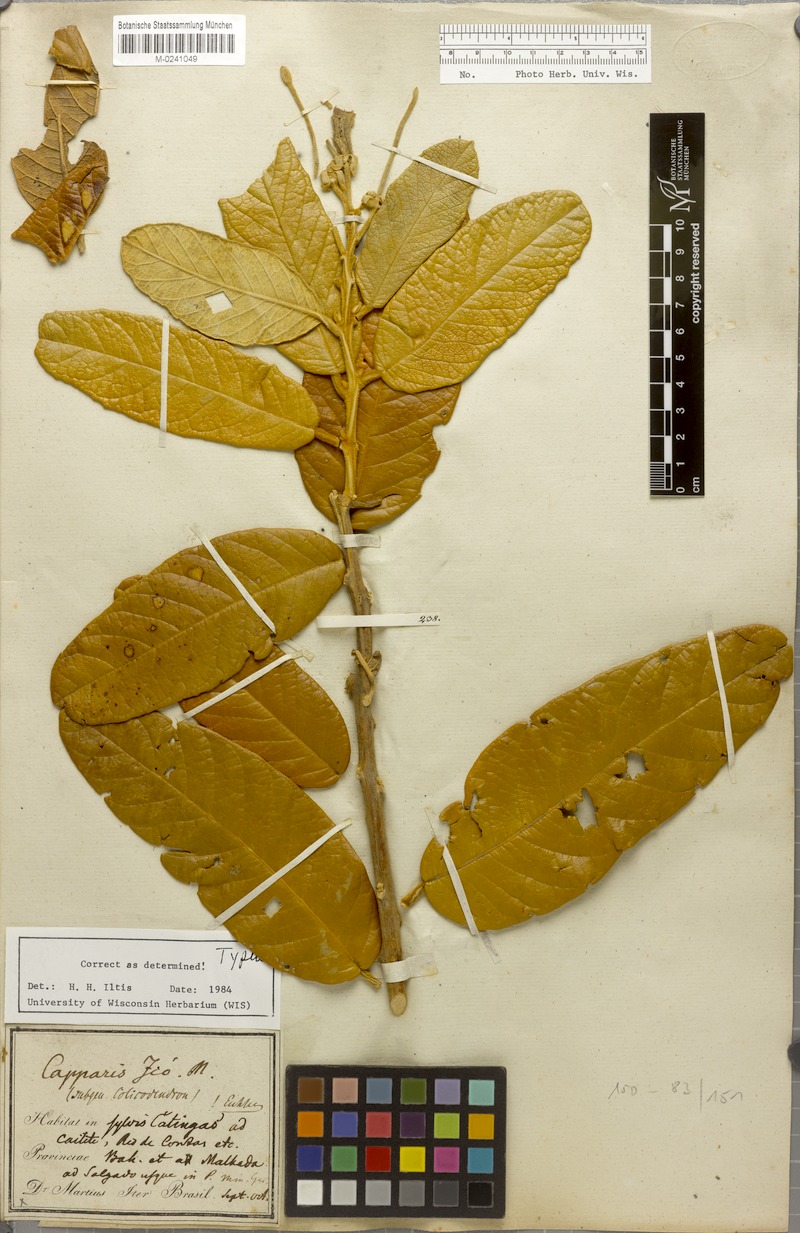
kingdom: Plantae
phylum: Tracheophyta
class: Magnoliopsida
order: Brassicales
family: Capparaceae
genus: Colicodendron
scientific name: Colicodendron yco
